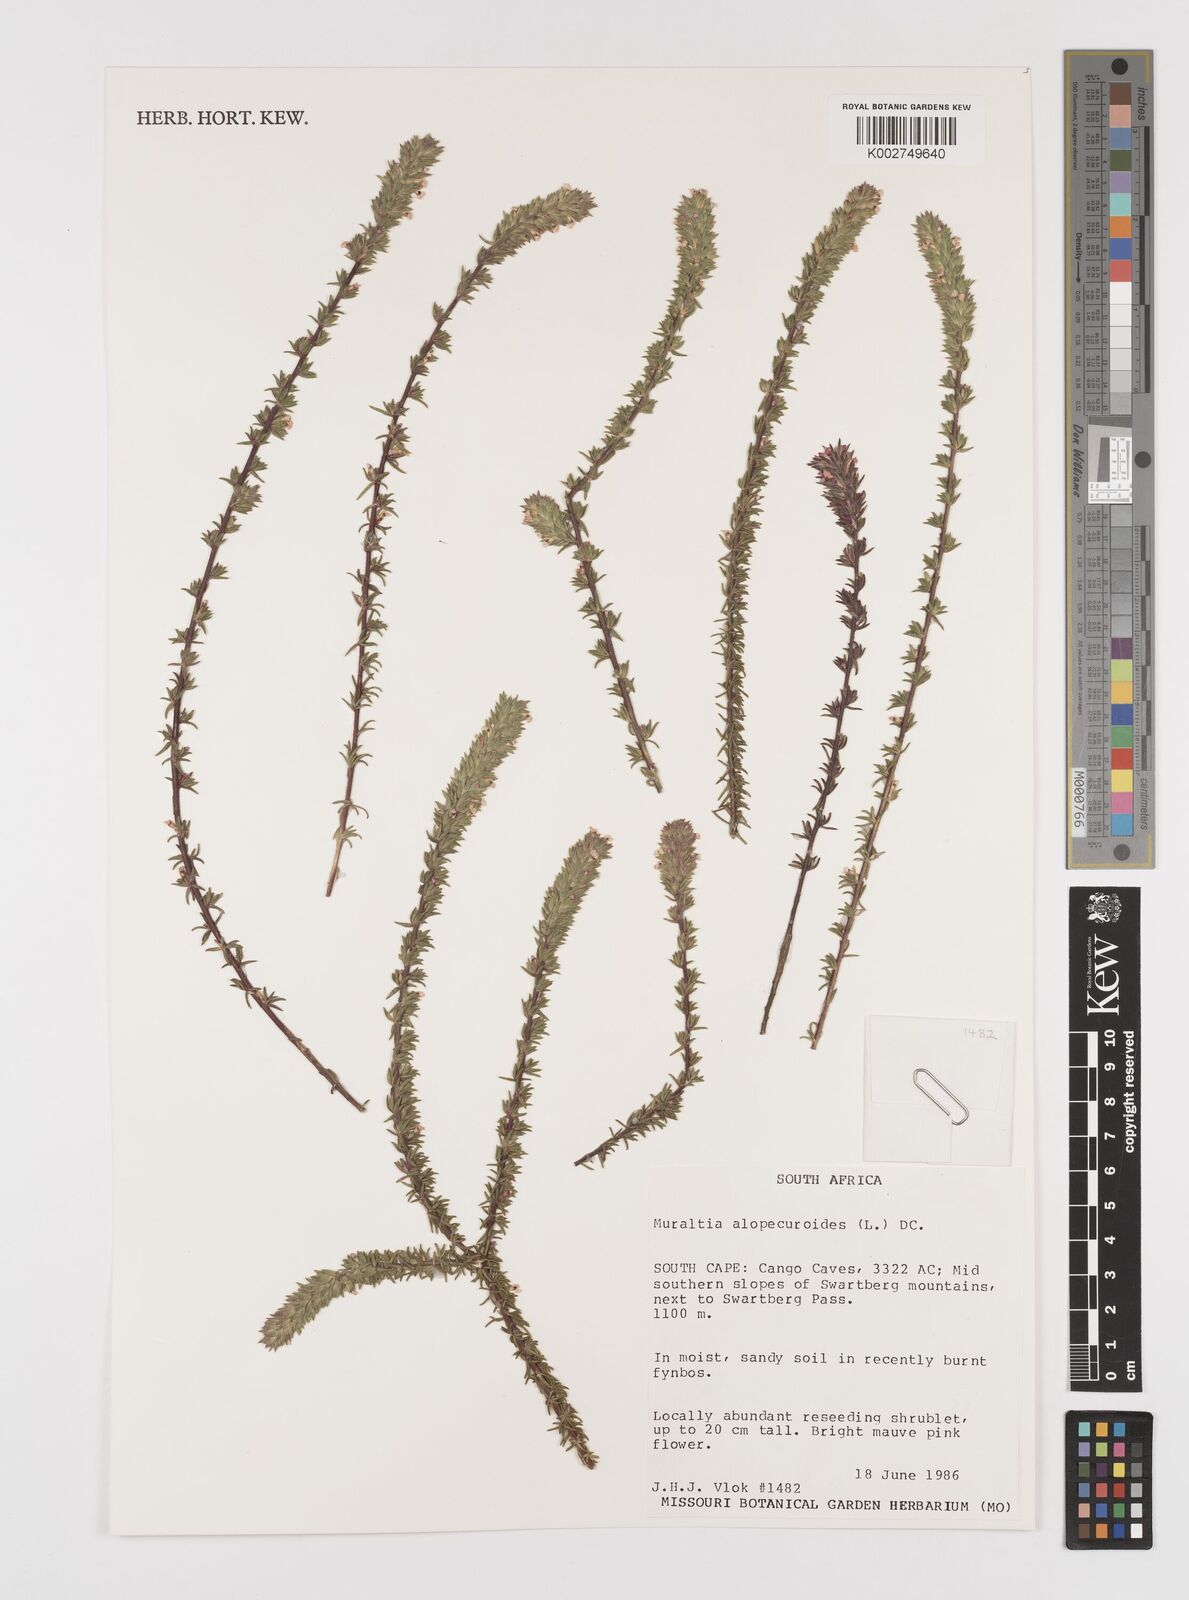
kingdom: Plantae
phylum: Tracheophyta
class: Magnoliopsida
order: Fabales
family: Polygalaceae
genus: Muraltia
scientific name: Muraltia alopecuroides
